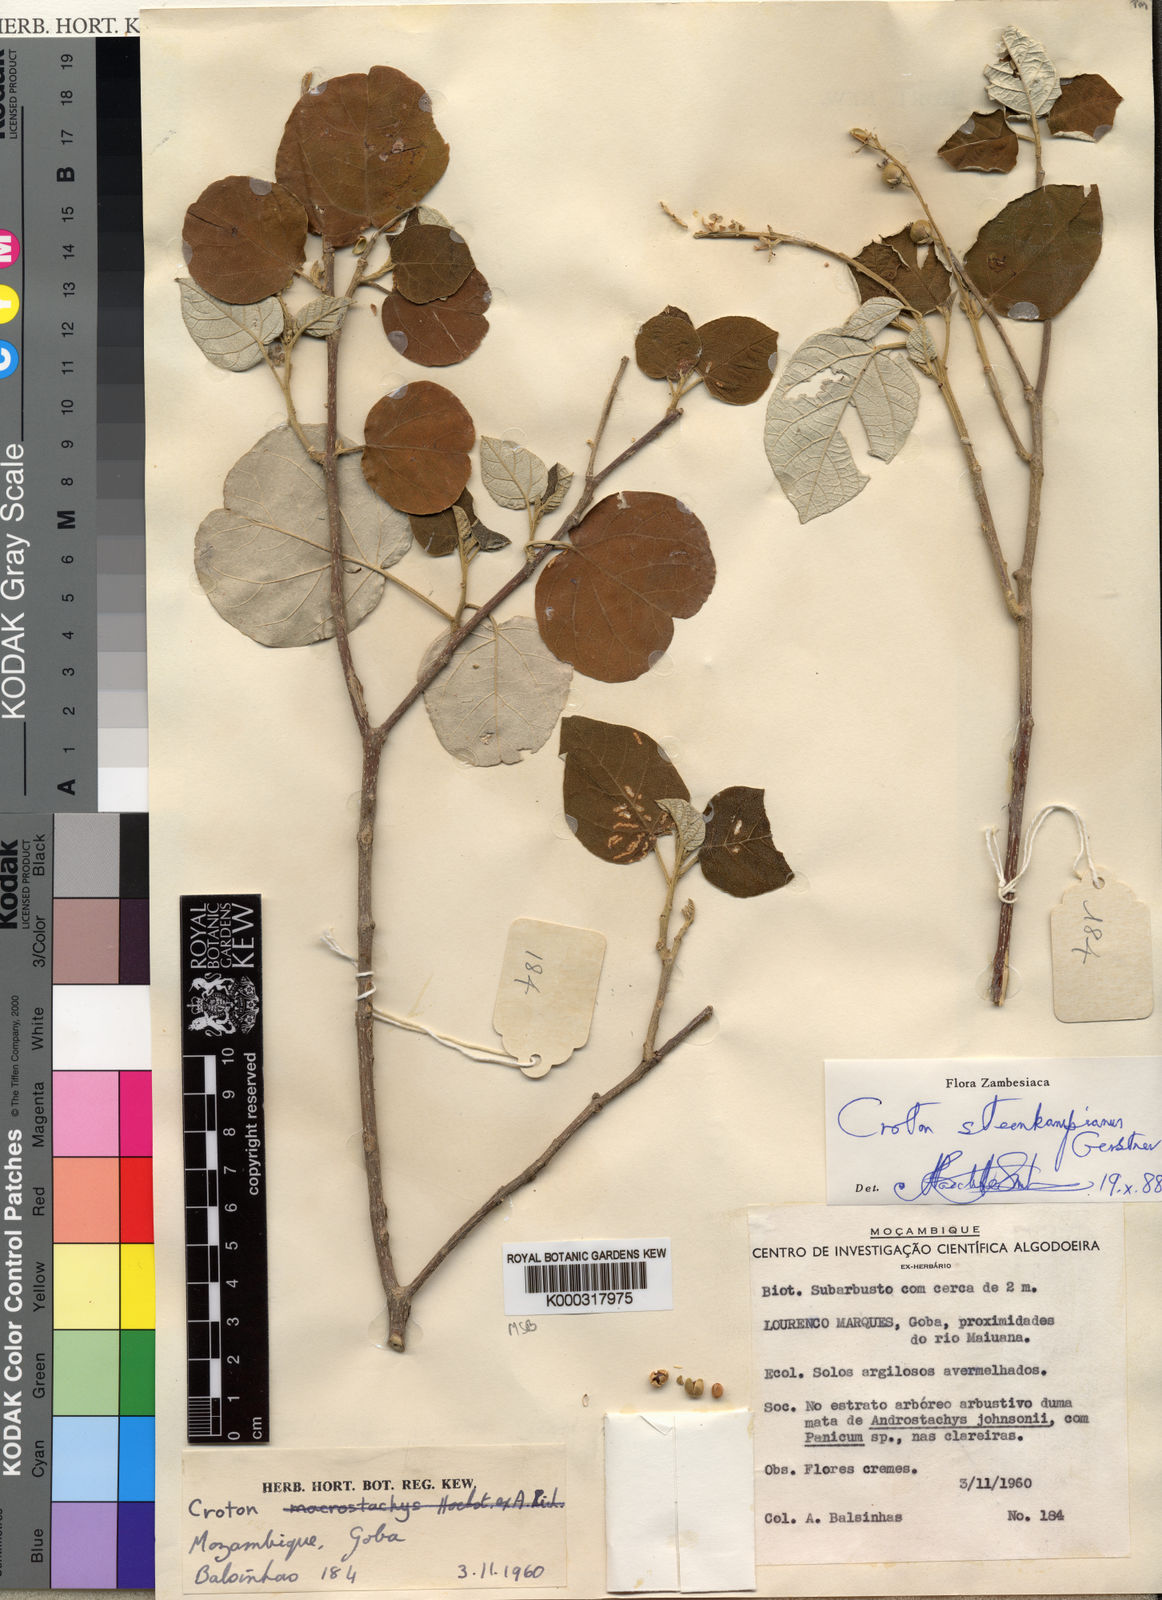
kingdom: Plantae
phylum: Tracheophyta
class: Magnoliopsida
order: Malpighiales
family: Euphorbiaceae
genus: Croton
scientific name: Croton gratissimus
